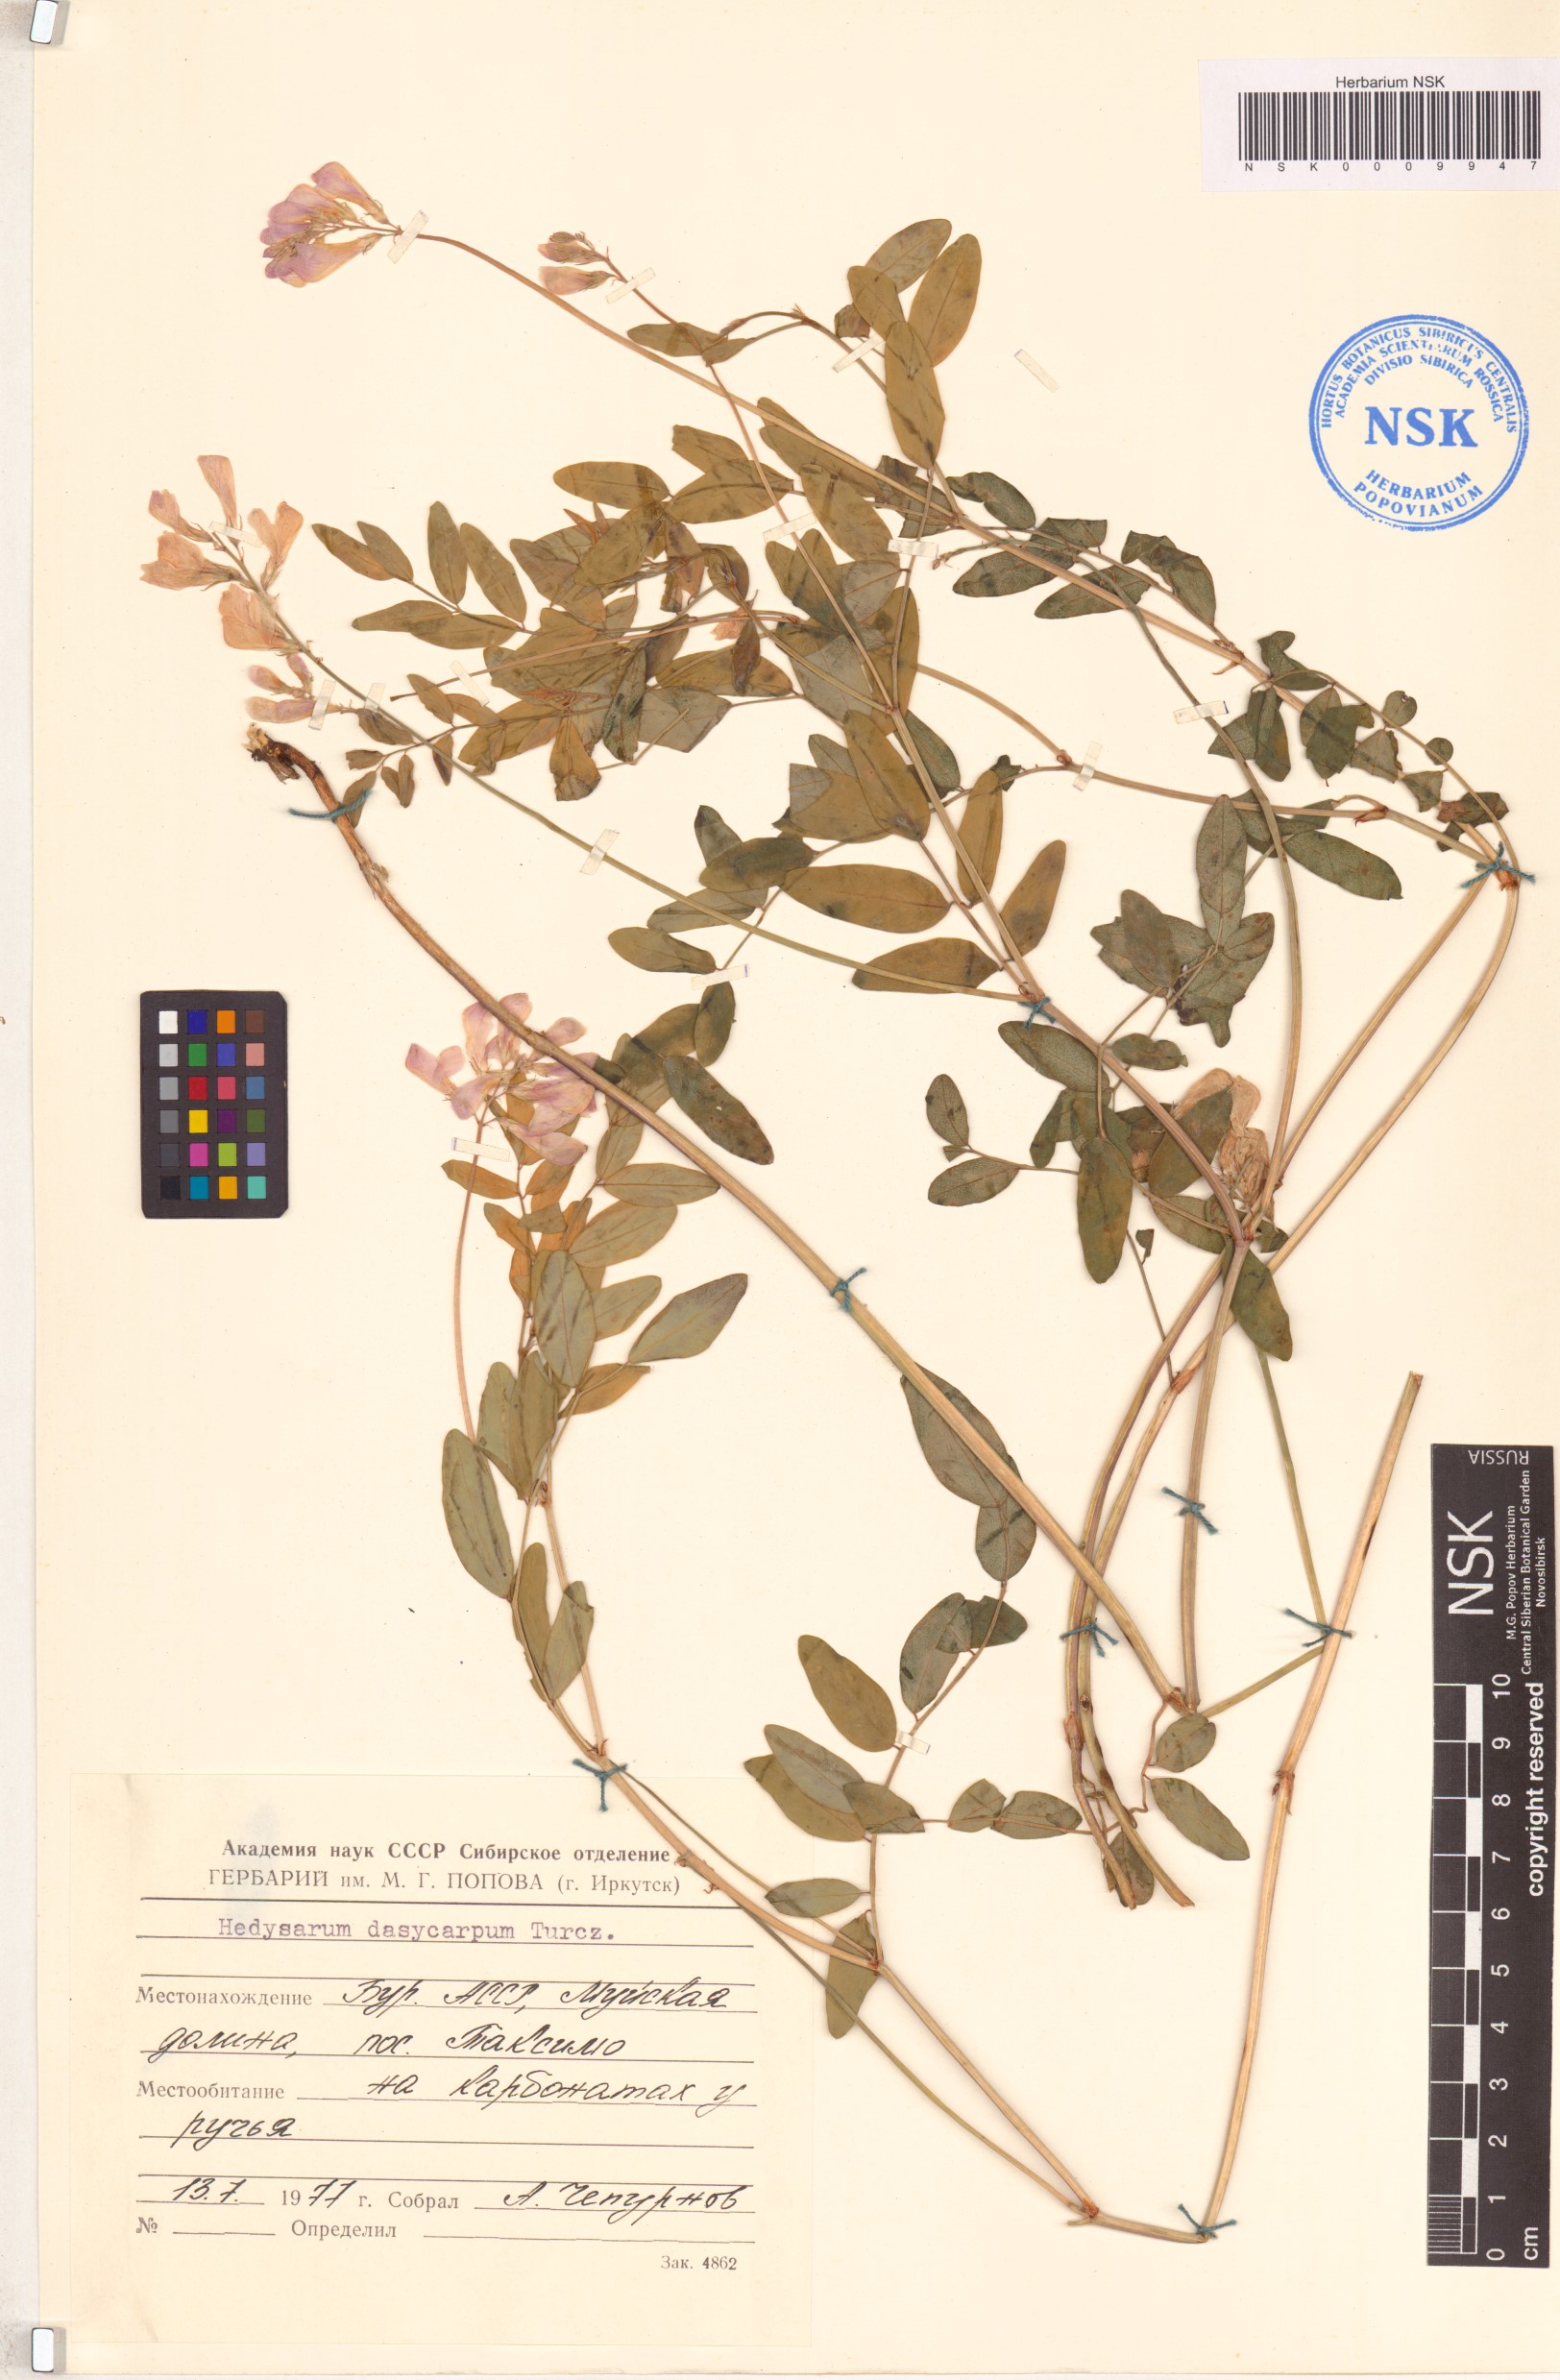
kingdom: Plantae
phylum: Tracheophyta
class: Magnoliopsida
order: Fabales
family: Fabaceae
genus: Hedysarum
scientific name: Hedysarum dasycarpum
